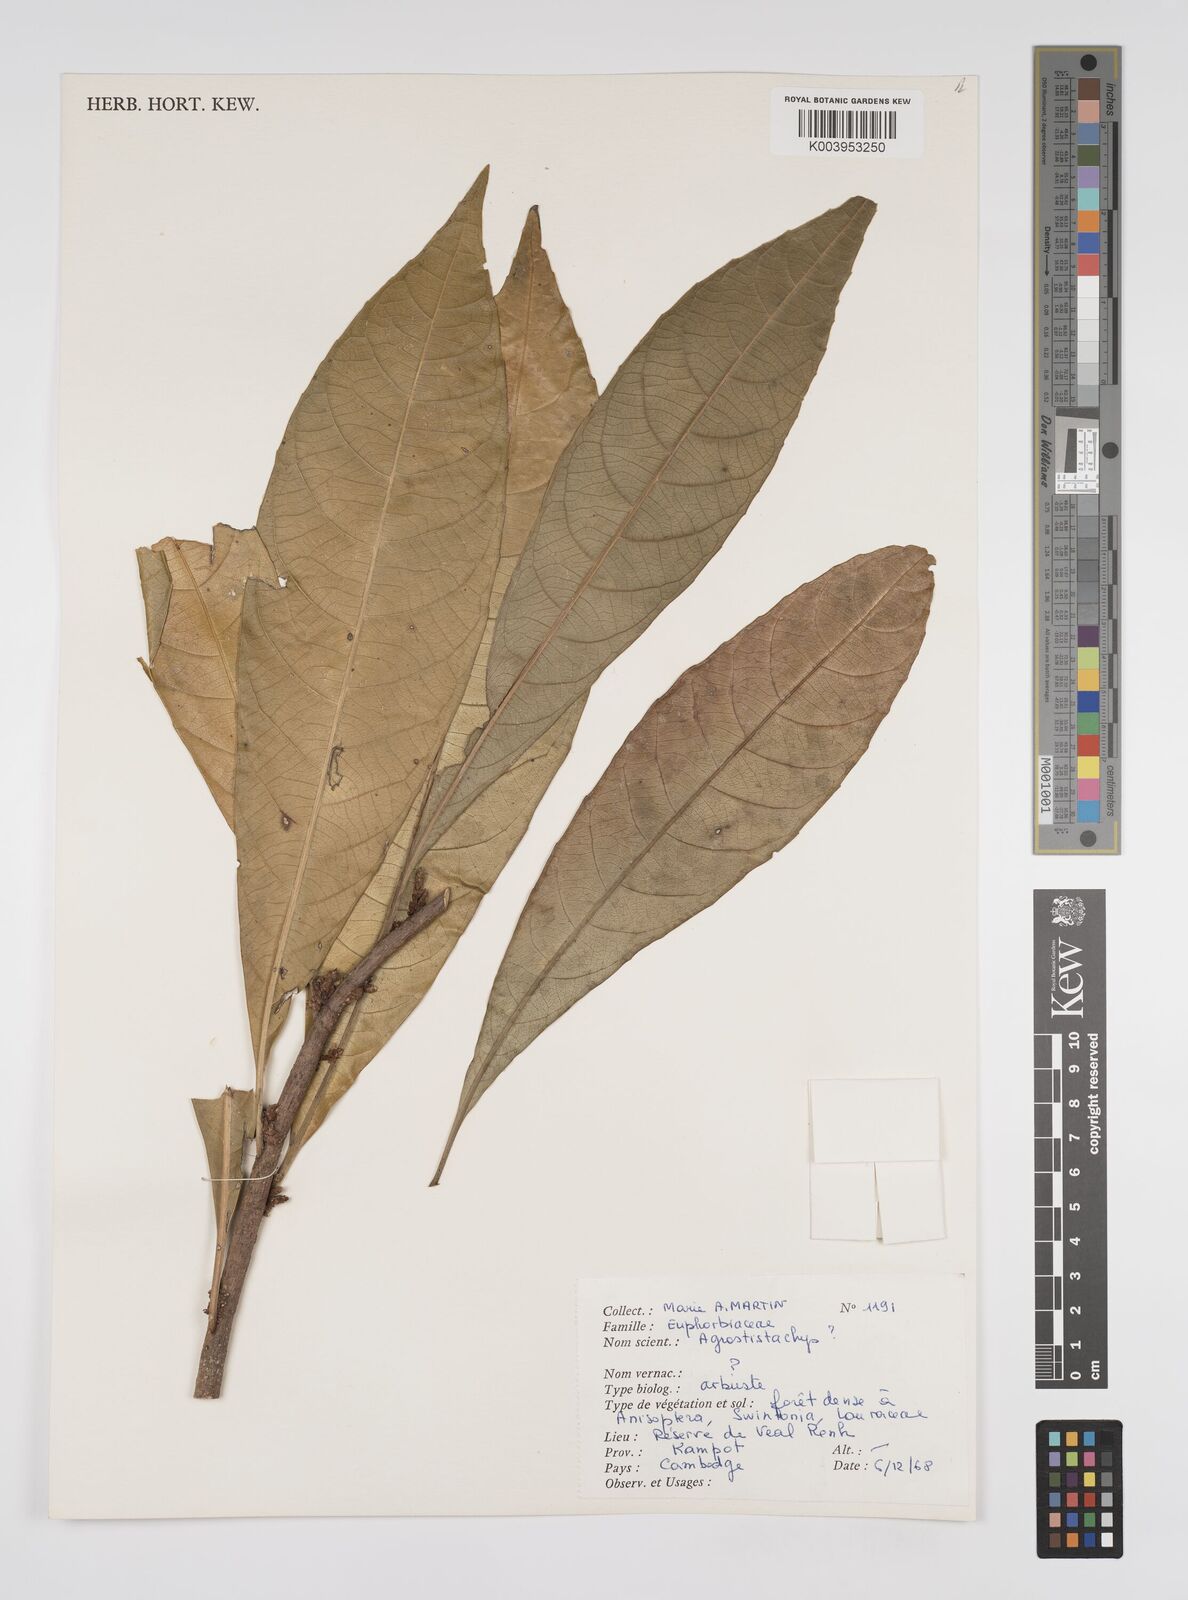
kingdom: Plantae
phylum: Tracheophyta
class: Magnoliopsida
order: Malpighiales
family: Euphorbiaceae
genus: Agrostistachys
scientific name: Agrostistachys indica
